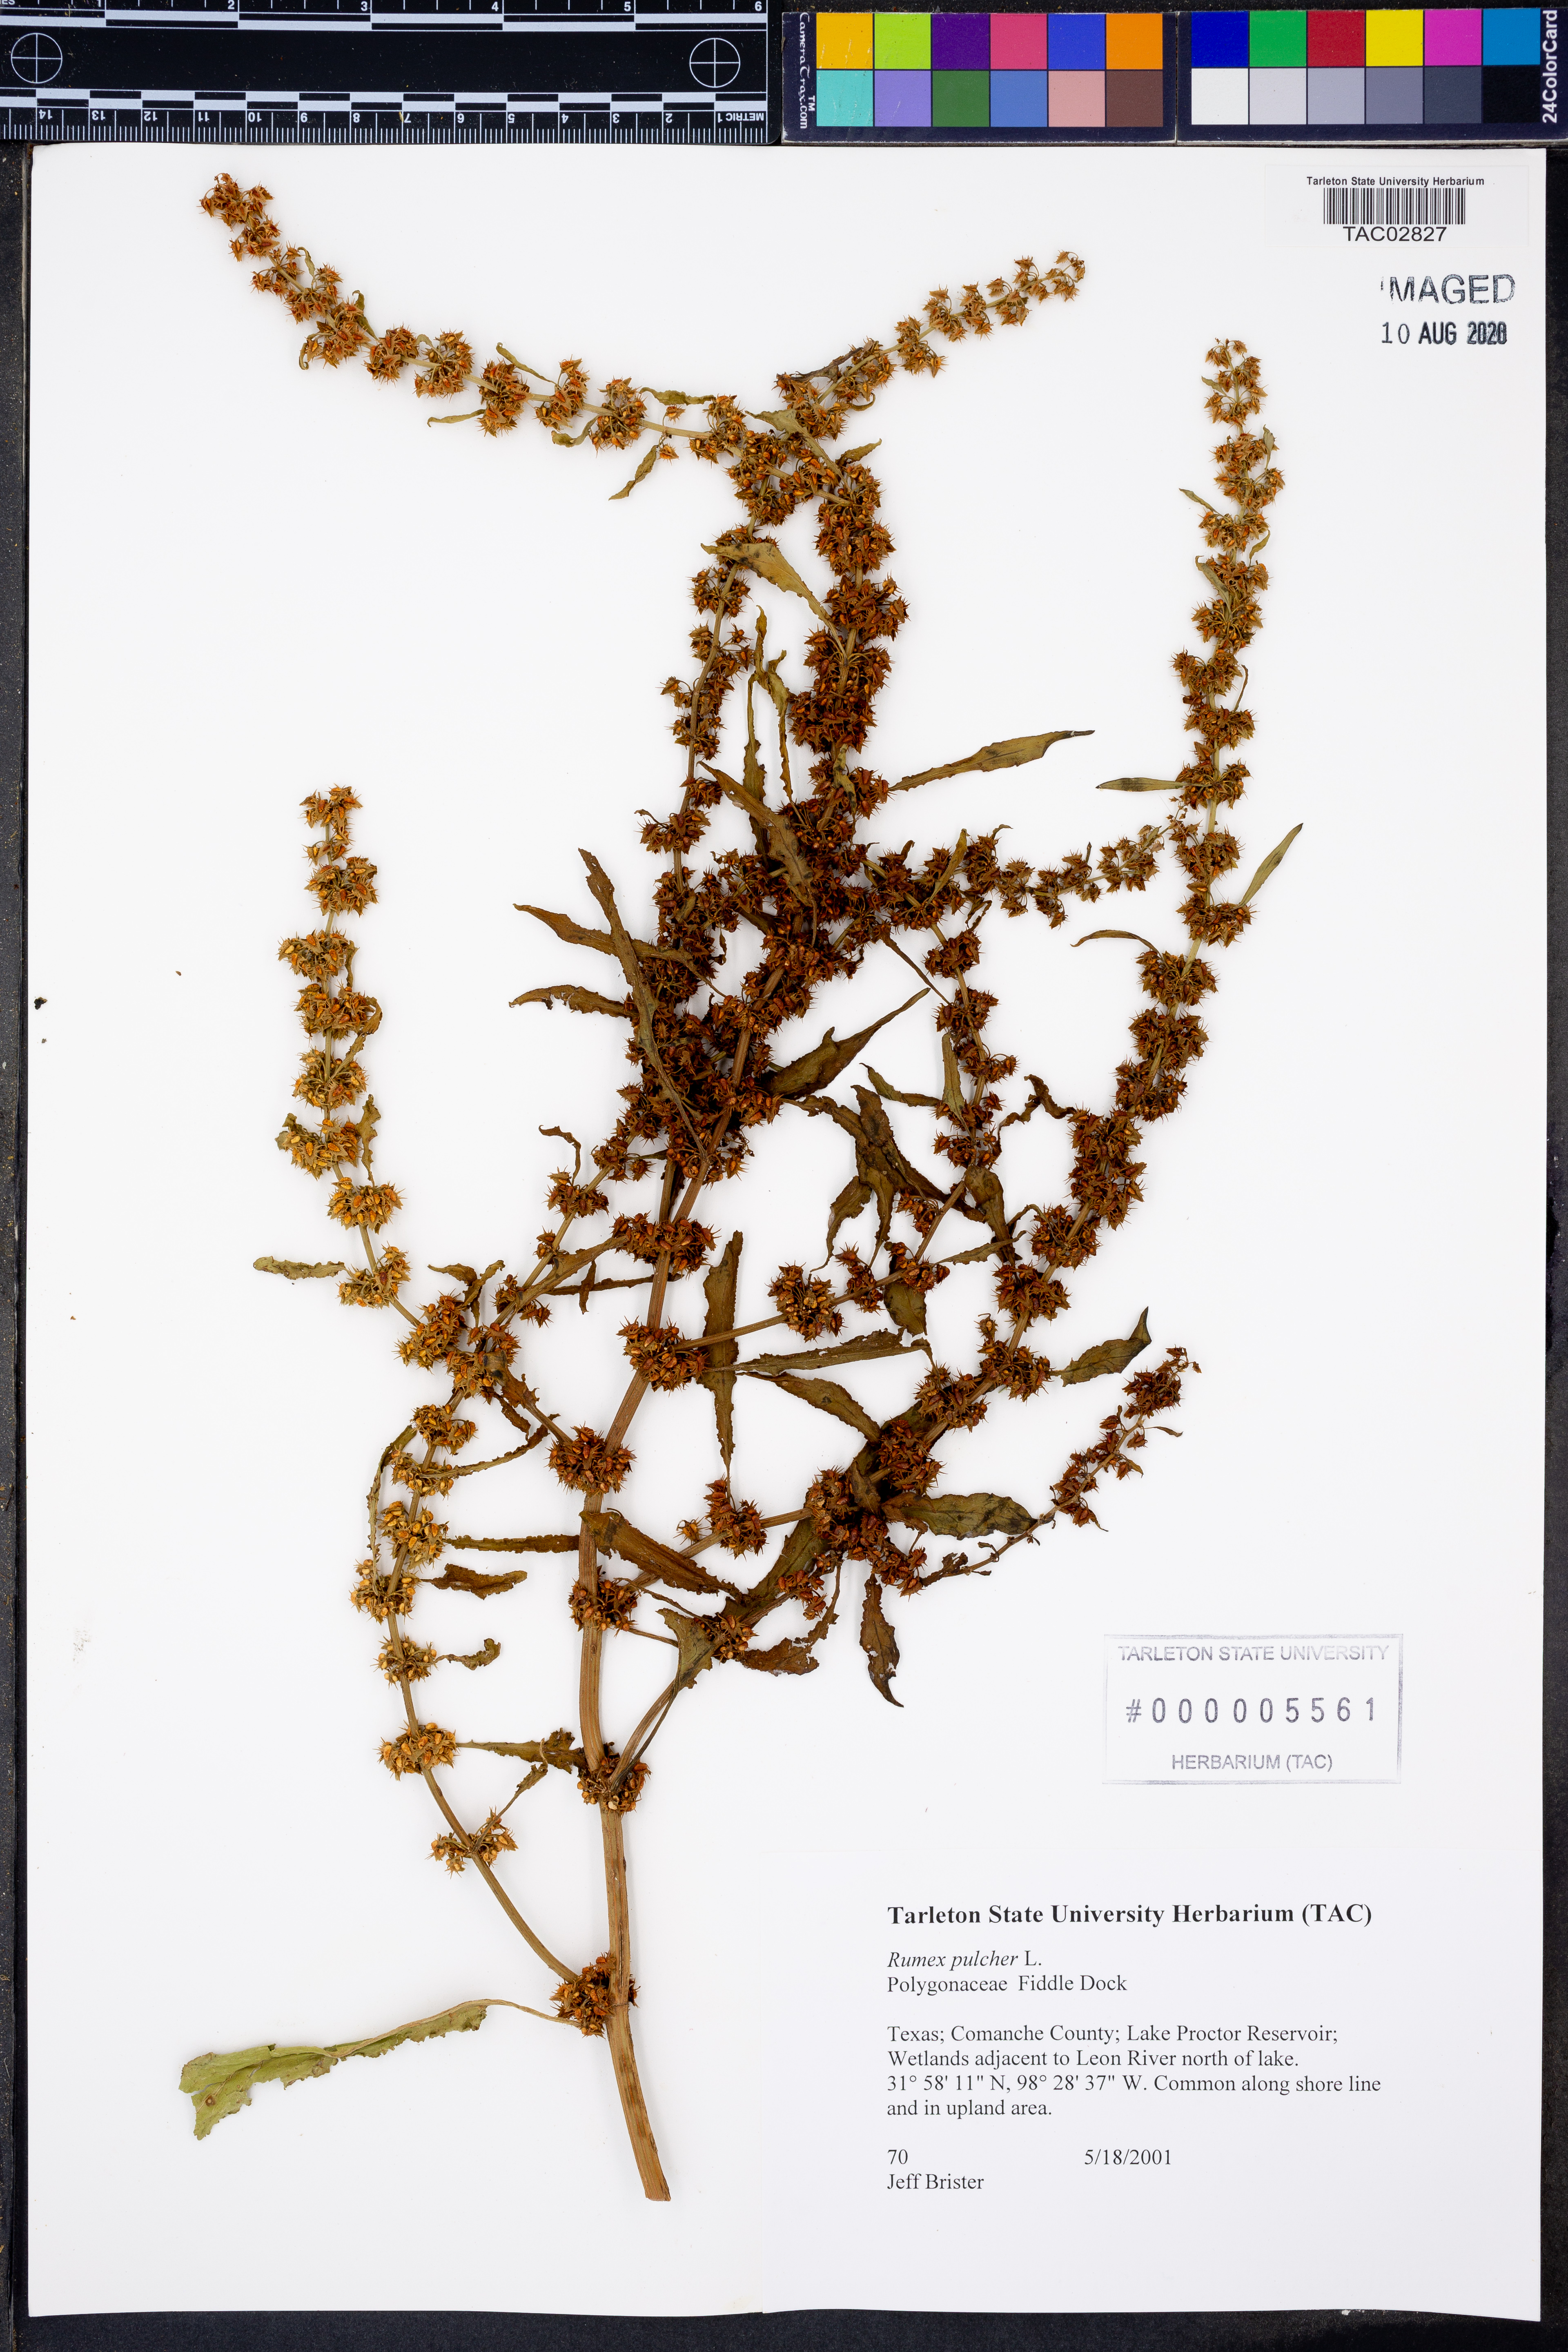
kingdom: Plantae
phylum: Tracheophyta
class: Magnoliopsida
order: Caryophyllales
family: Polygonaceae
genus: Rumex
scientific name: Rumex pulcher
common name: Fiddle dock
